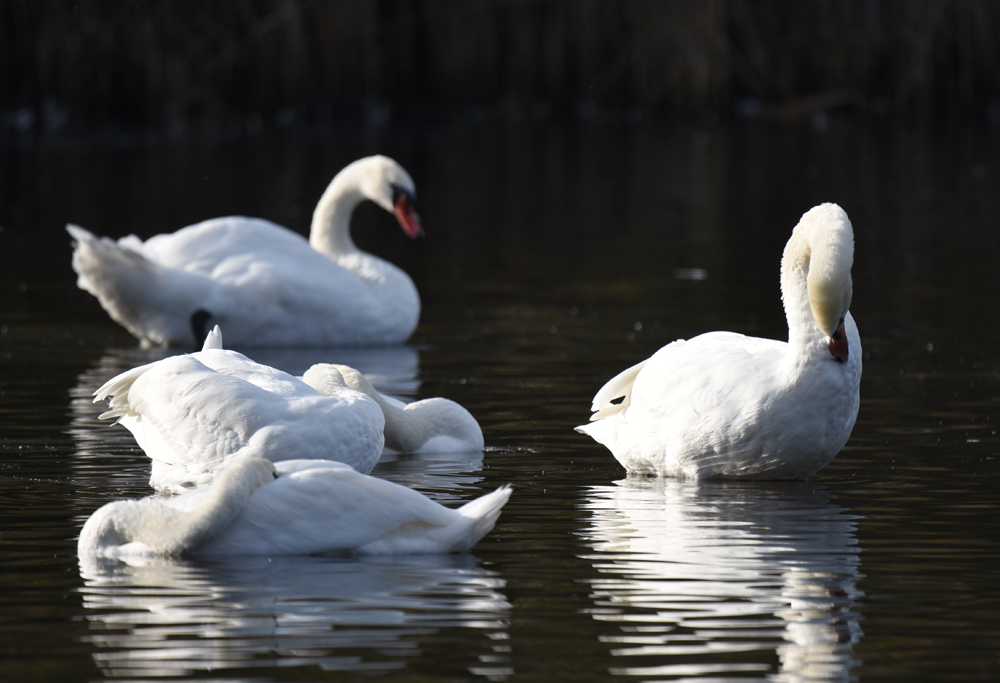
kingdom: Animalia
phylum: Chordata
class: Aves
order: Anseriformes
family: Anatidae
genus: Cygnus
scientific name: Cygnus olor
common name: Mute swan
